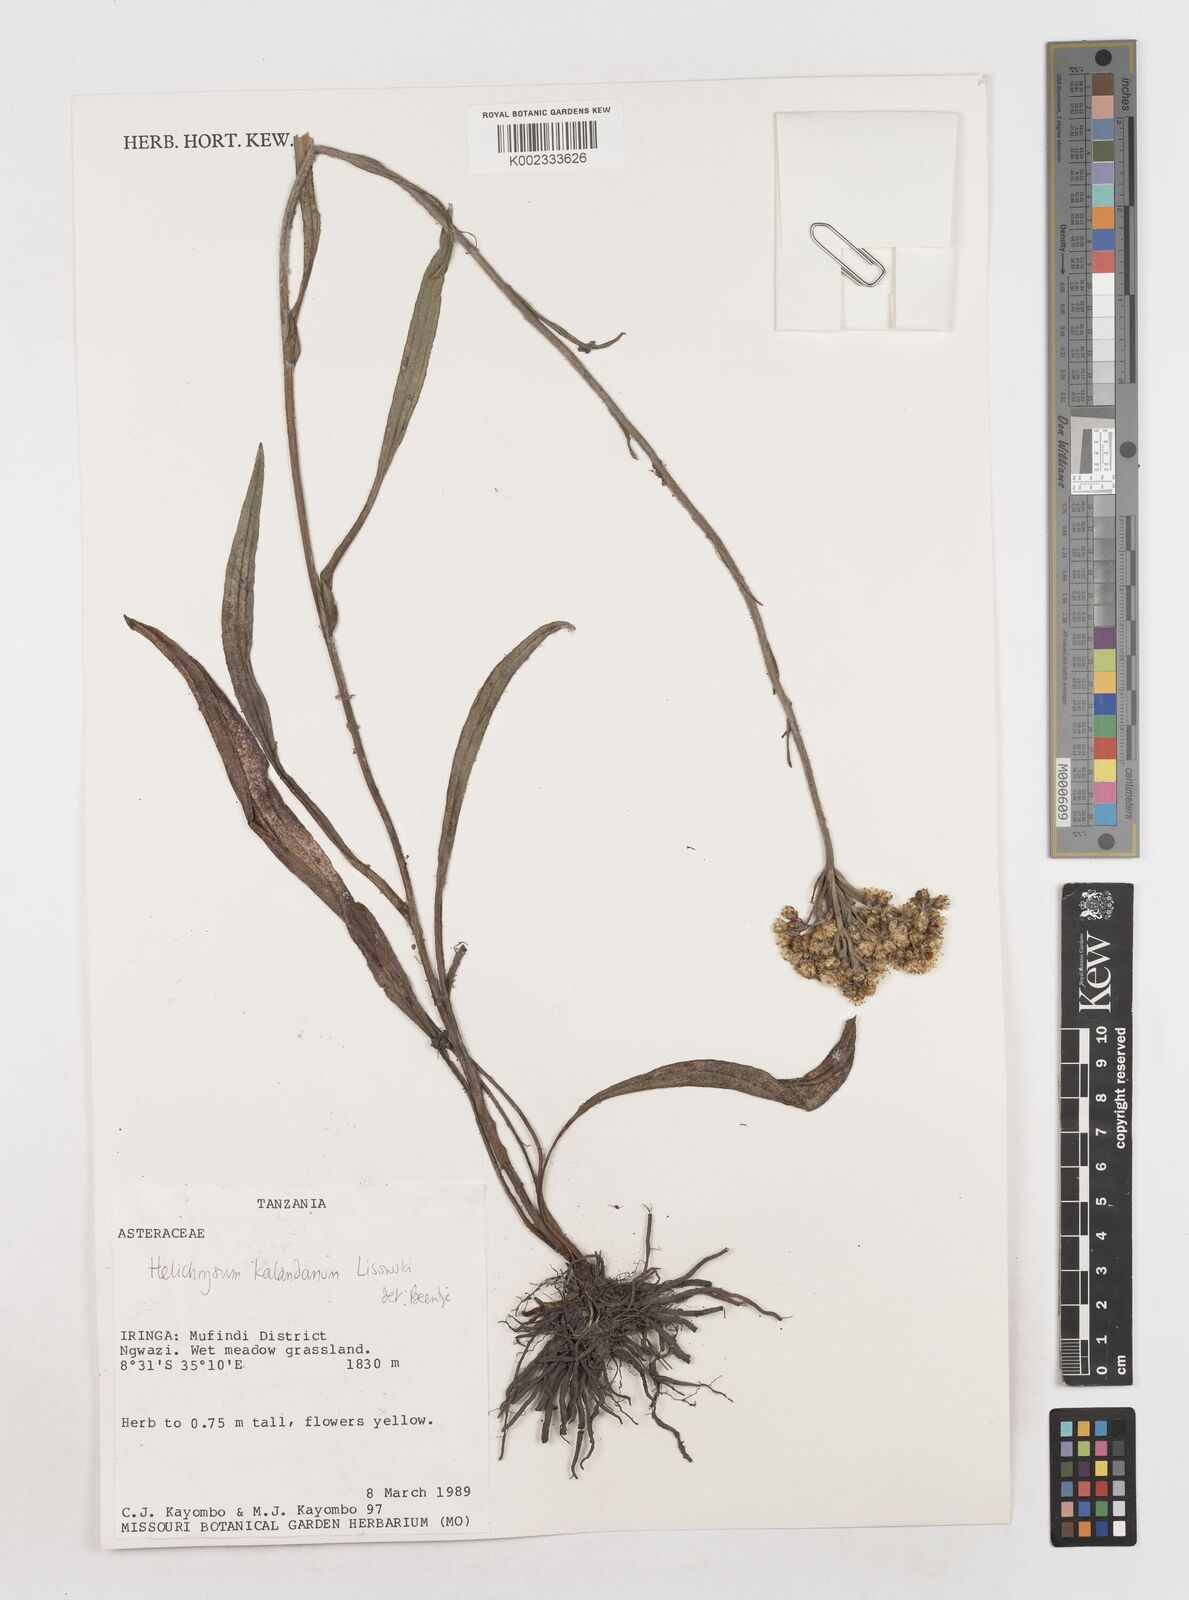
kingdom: Plantae
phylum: Tracheophyta
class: Magnoliopsida
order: Asterales
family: Asteraceae
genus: Helichrysum
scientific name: Helichrysum kalandanum
